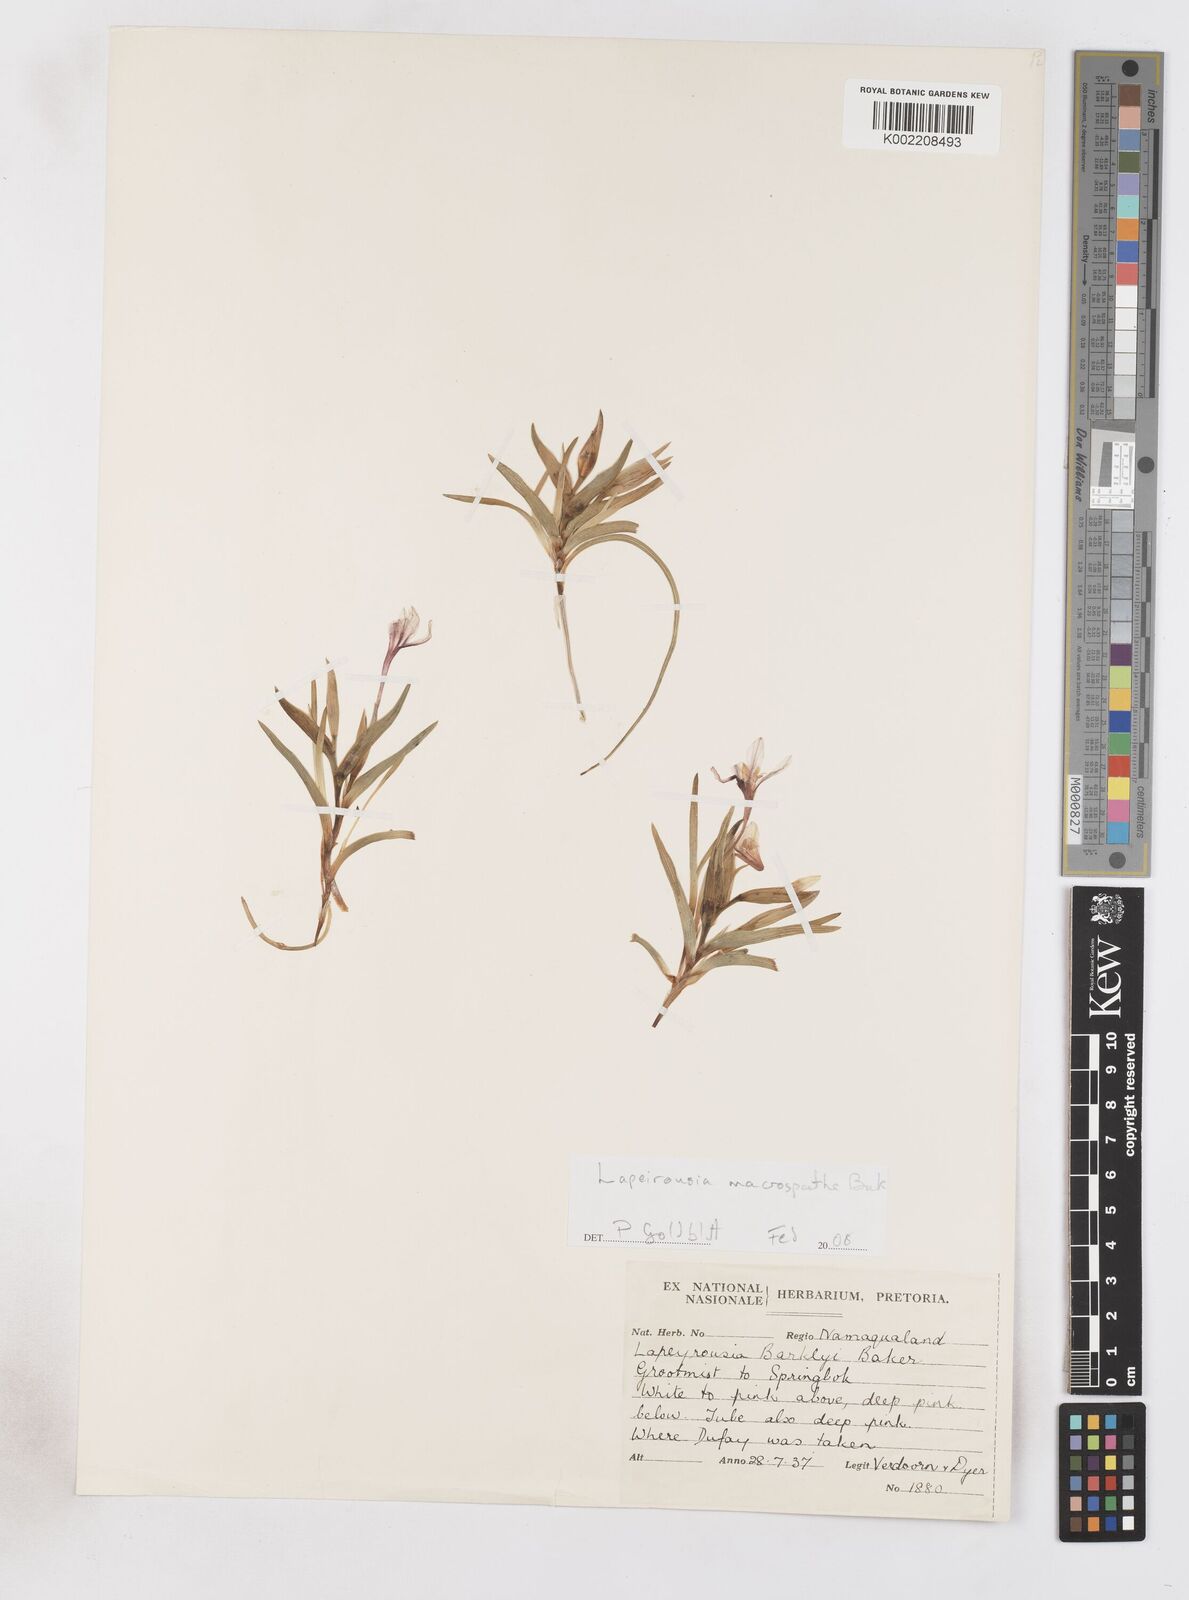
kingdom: Plantae
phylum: Tracheophyta
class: Liliopsida
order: Asparagales
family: Iridaceae
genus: Lapeirousia
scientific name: Lapeirousia macrospatha
